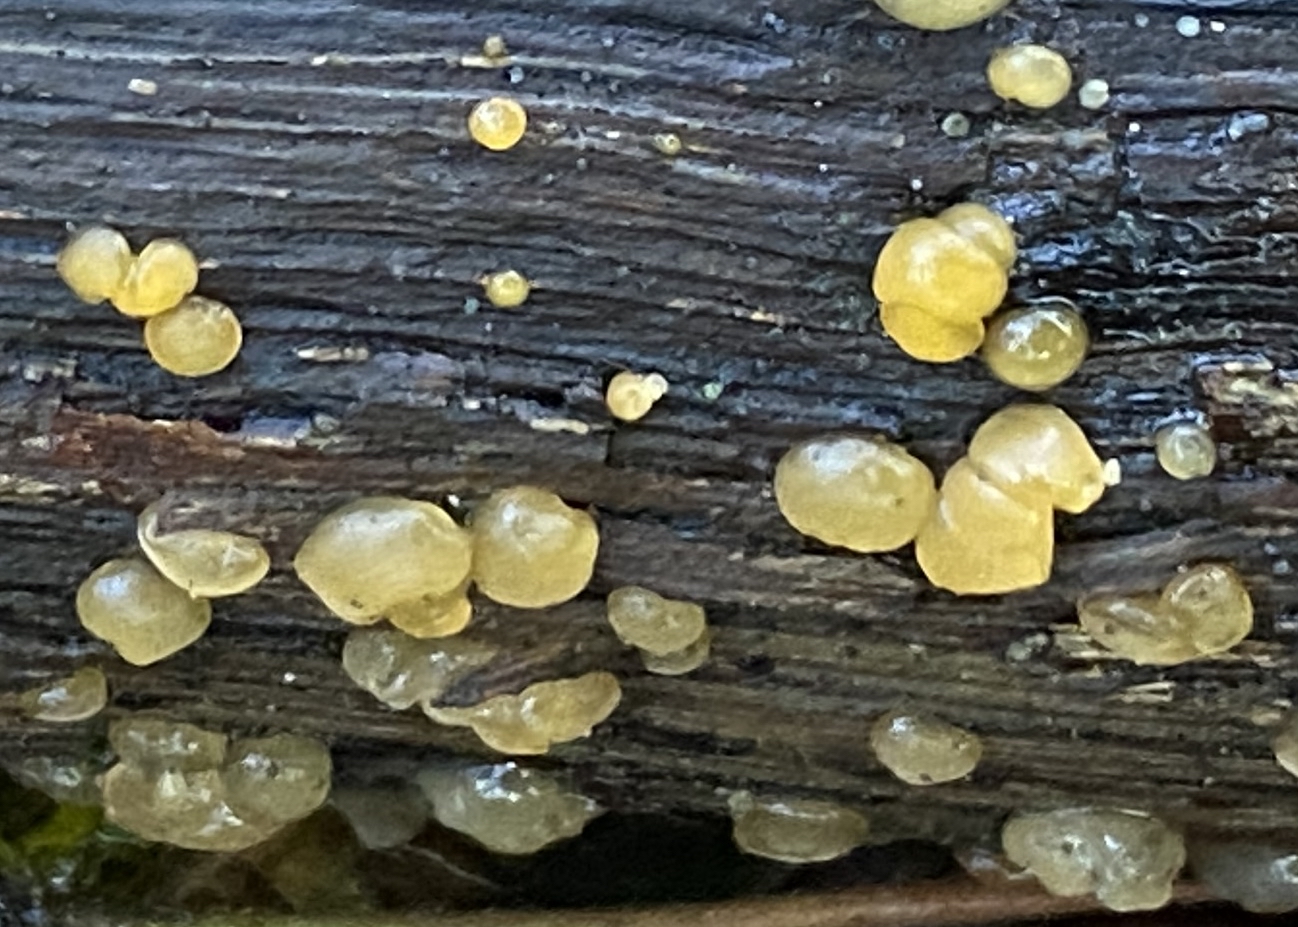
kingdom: Fungi
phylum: Basidiomycota
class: Dacrymycetes
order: Dacrymycetales
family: Dacrymycetaceae
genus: Dacrymyces
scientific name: Dacrymyces
